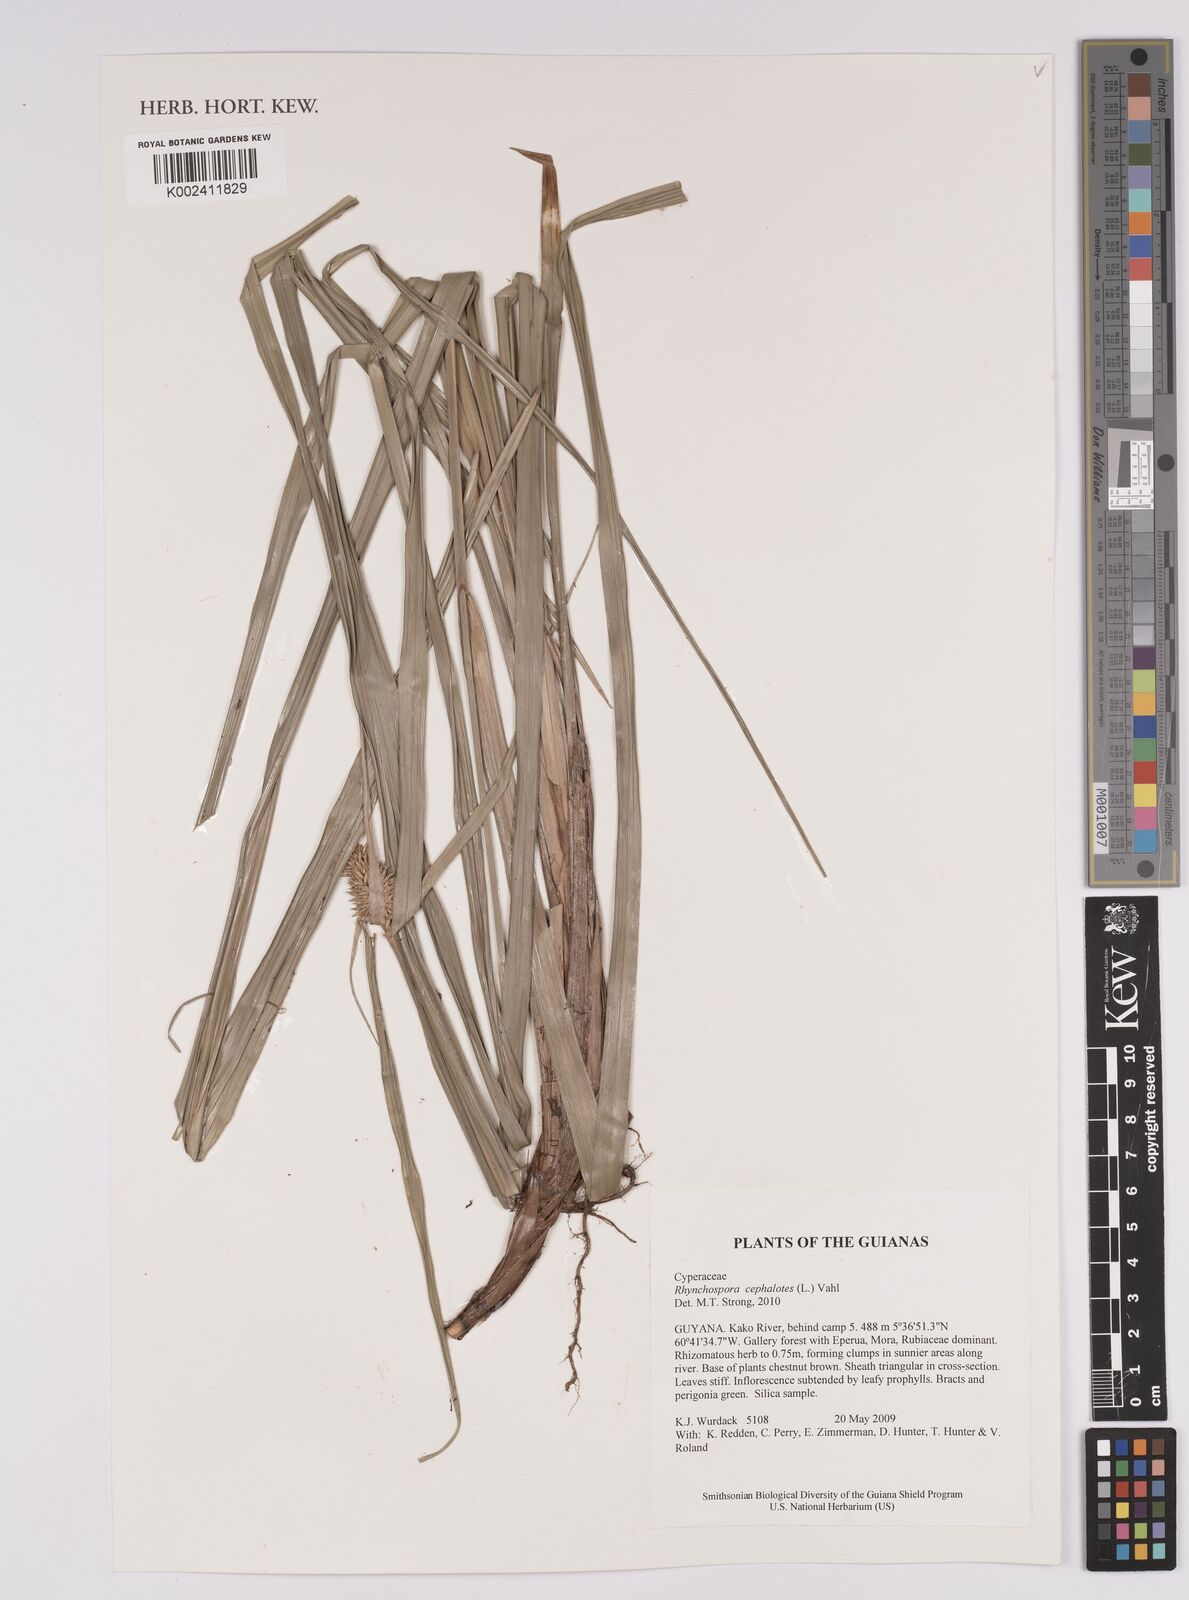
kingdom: Plantae
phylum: Tracheophyta
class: Liliopsida
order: Poales
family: Cyperaceae
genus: Rhynchospora
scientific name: Rhynchospora cephalotes
